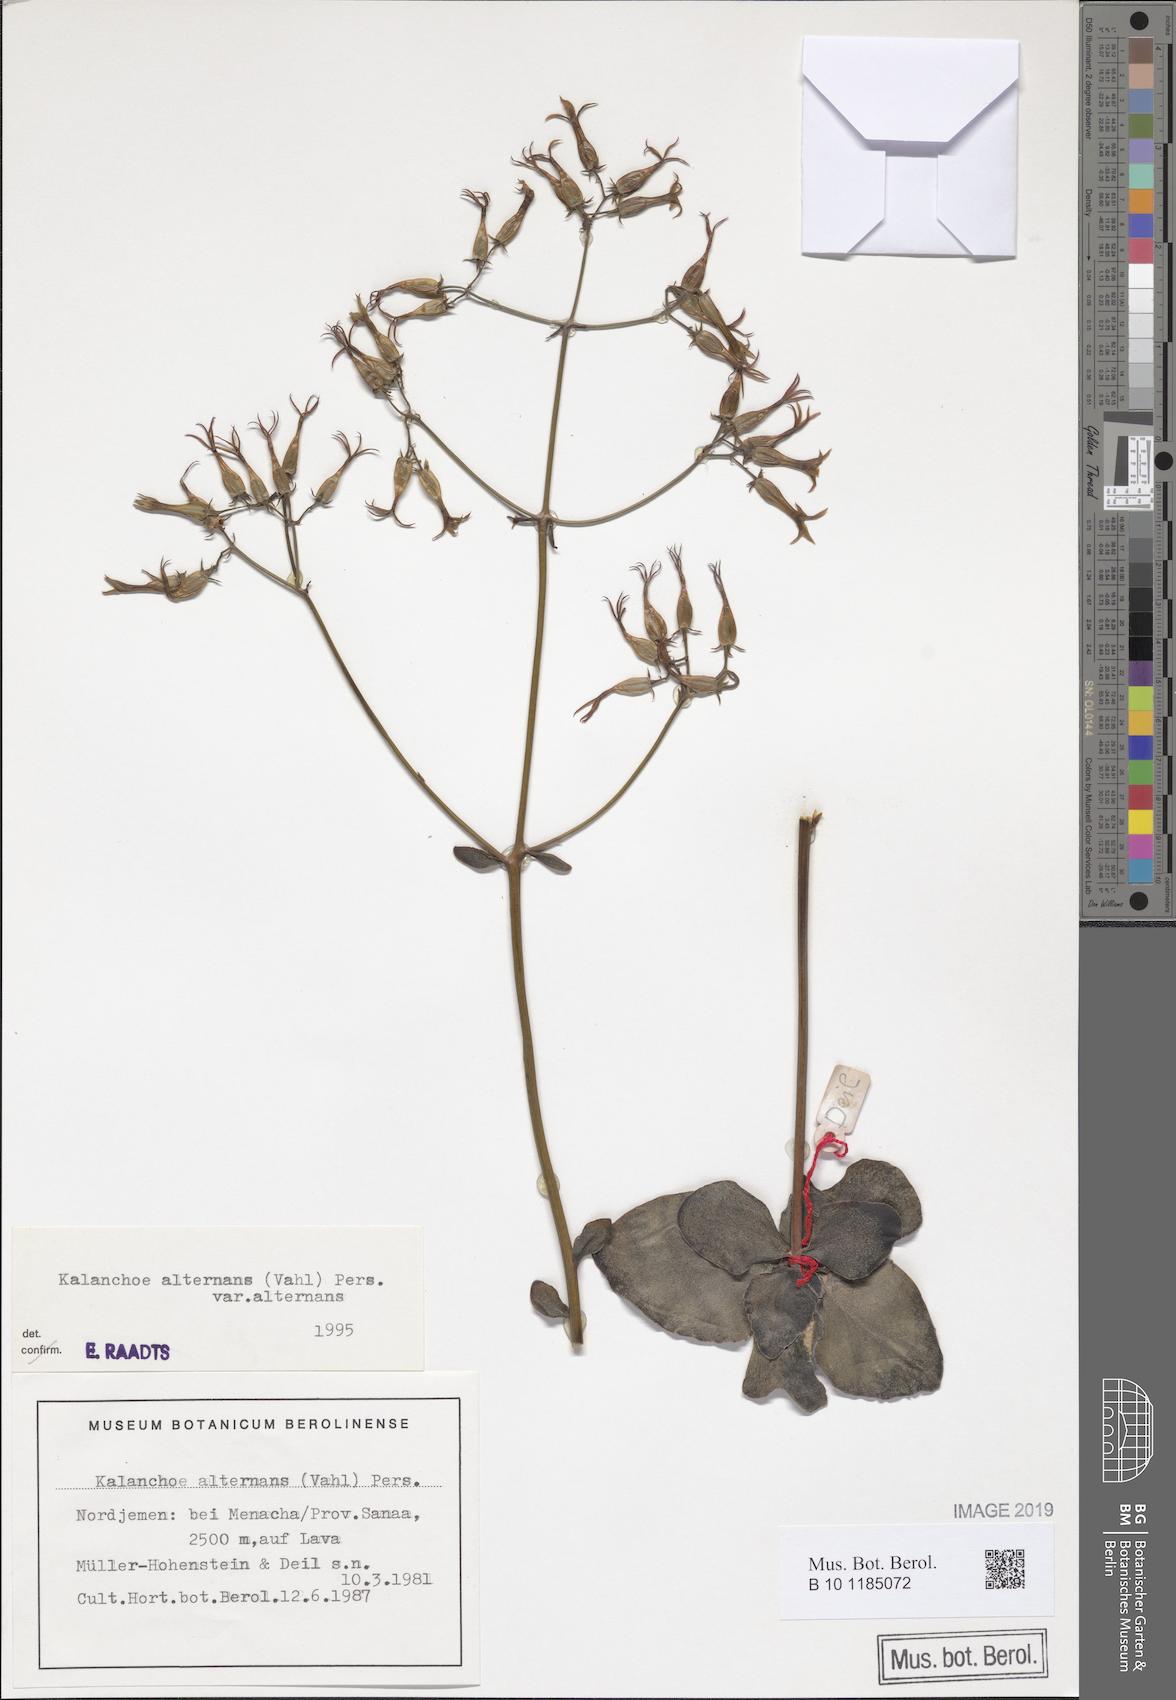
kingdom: Plantae
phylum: Tracheophyta
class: Magnoliopsida
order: Saxifragales
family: Crassulaceae
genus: Kalanchoe
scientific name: Kalanchoe alternans
